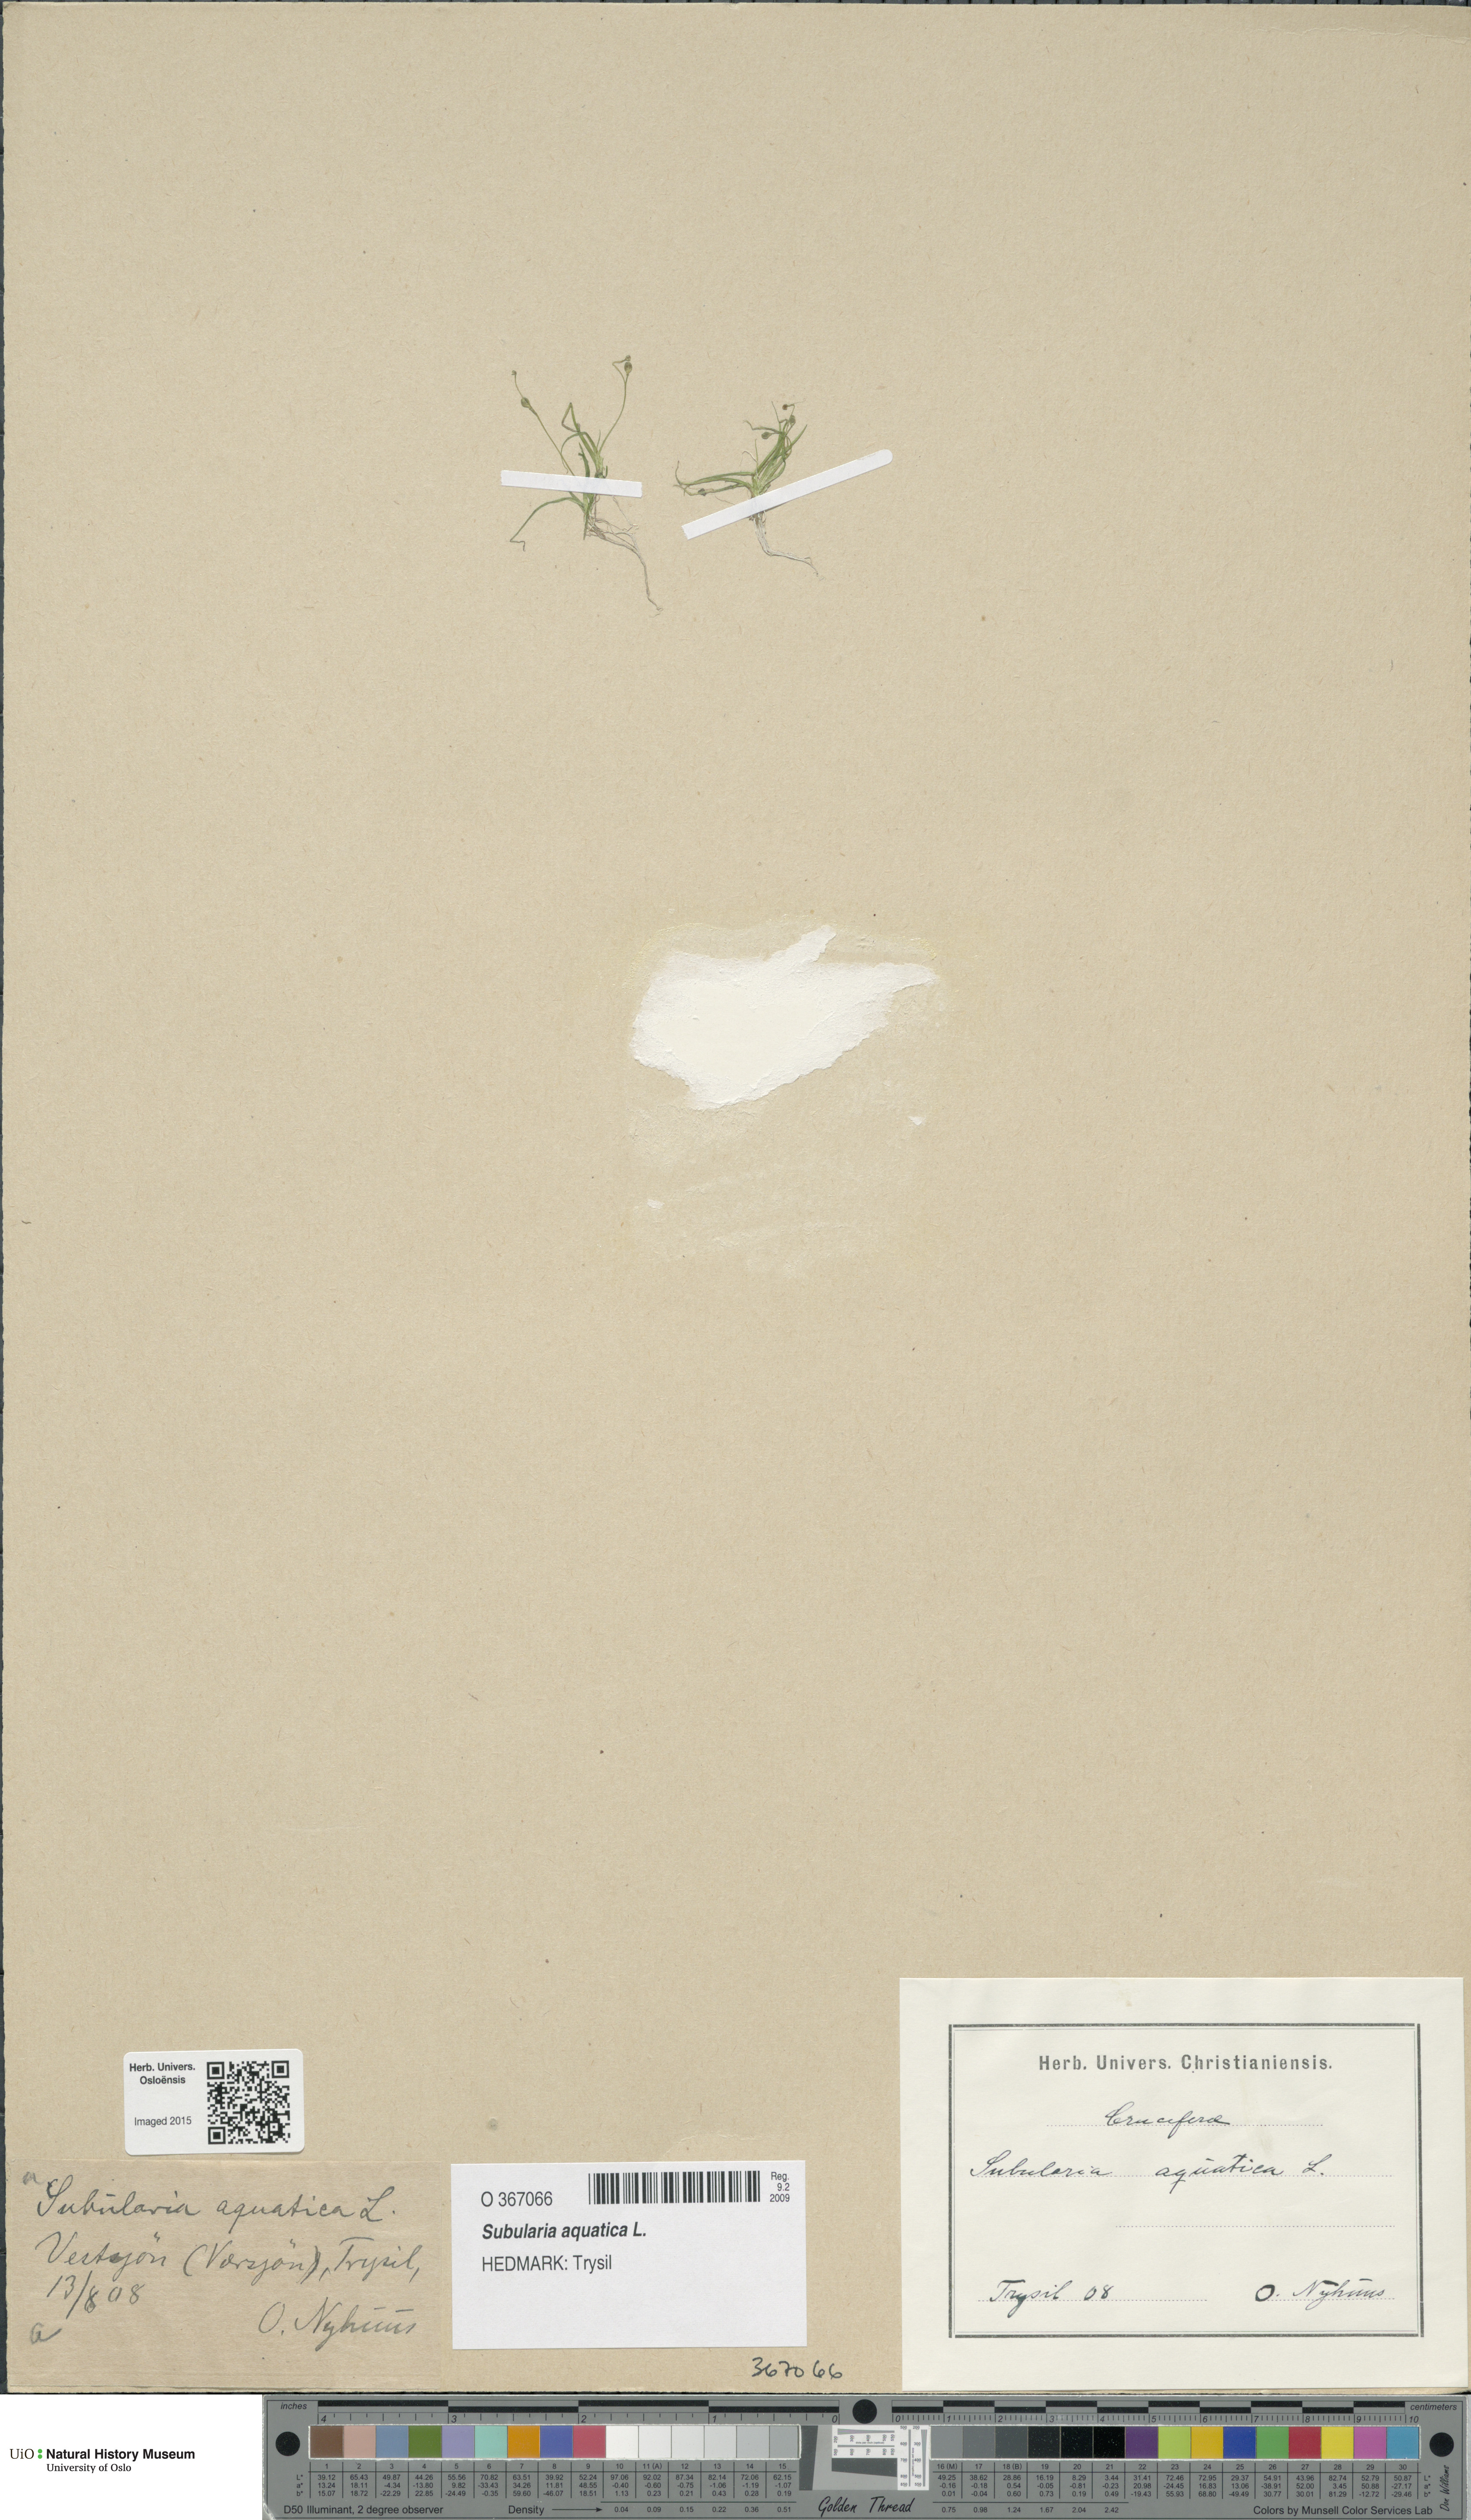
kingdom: Plantae
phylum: Tracheophyta
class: Magnoliopsida
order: Brassicales
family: Brassicaceae
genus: Subularia
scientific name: Subularia aquatica
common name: Awlwort
